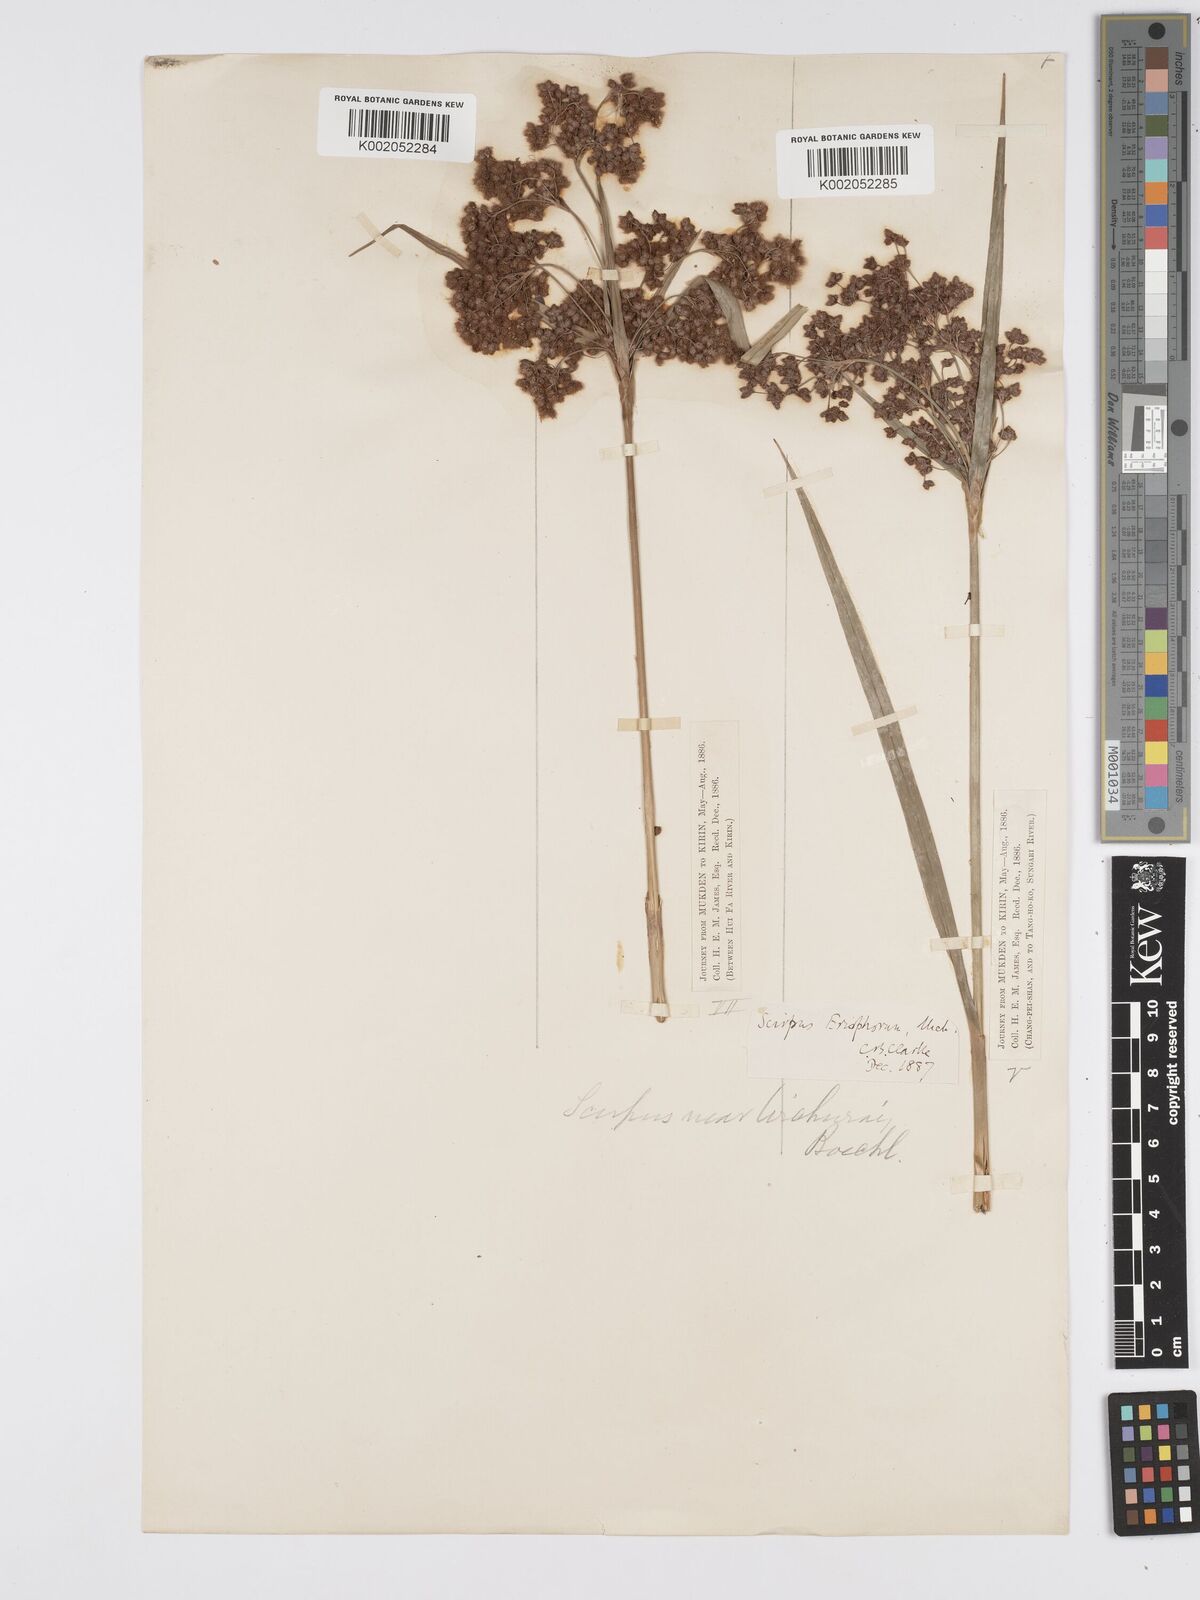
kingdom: Plantae
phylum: Tracheophyta
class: Liliopsida
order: Poales
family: Cyperaceae
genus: Scirpus
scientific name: Scirpus cyperinus
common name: Black-sheathed bulrush
